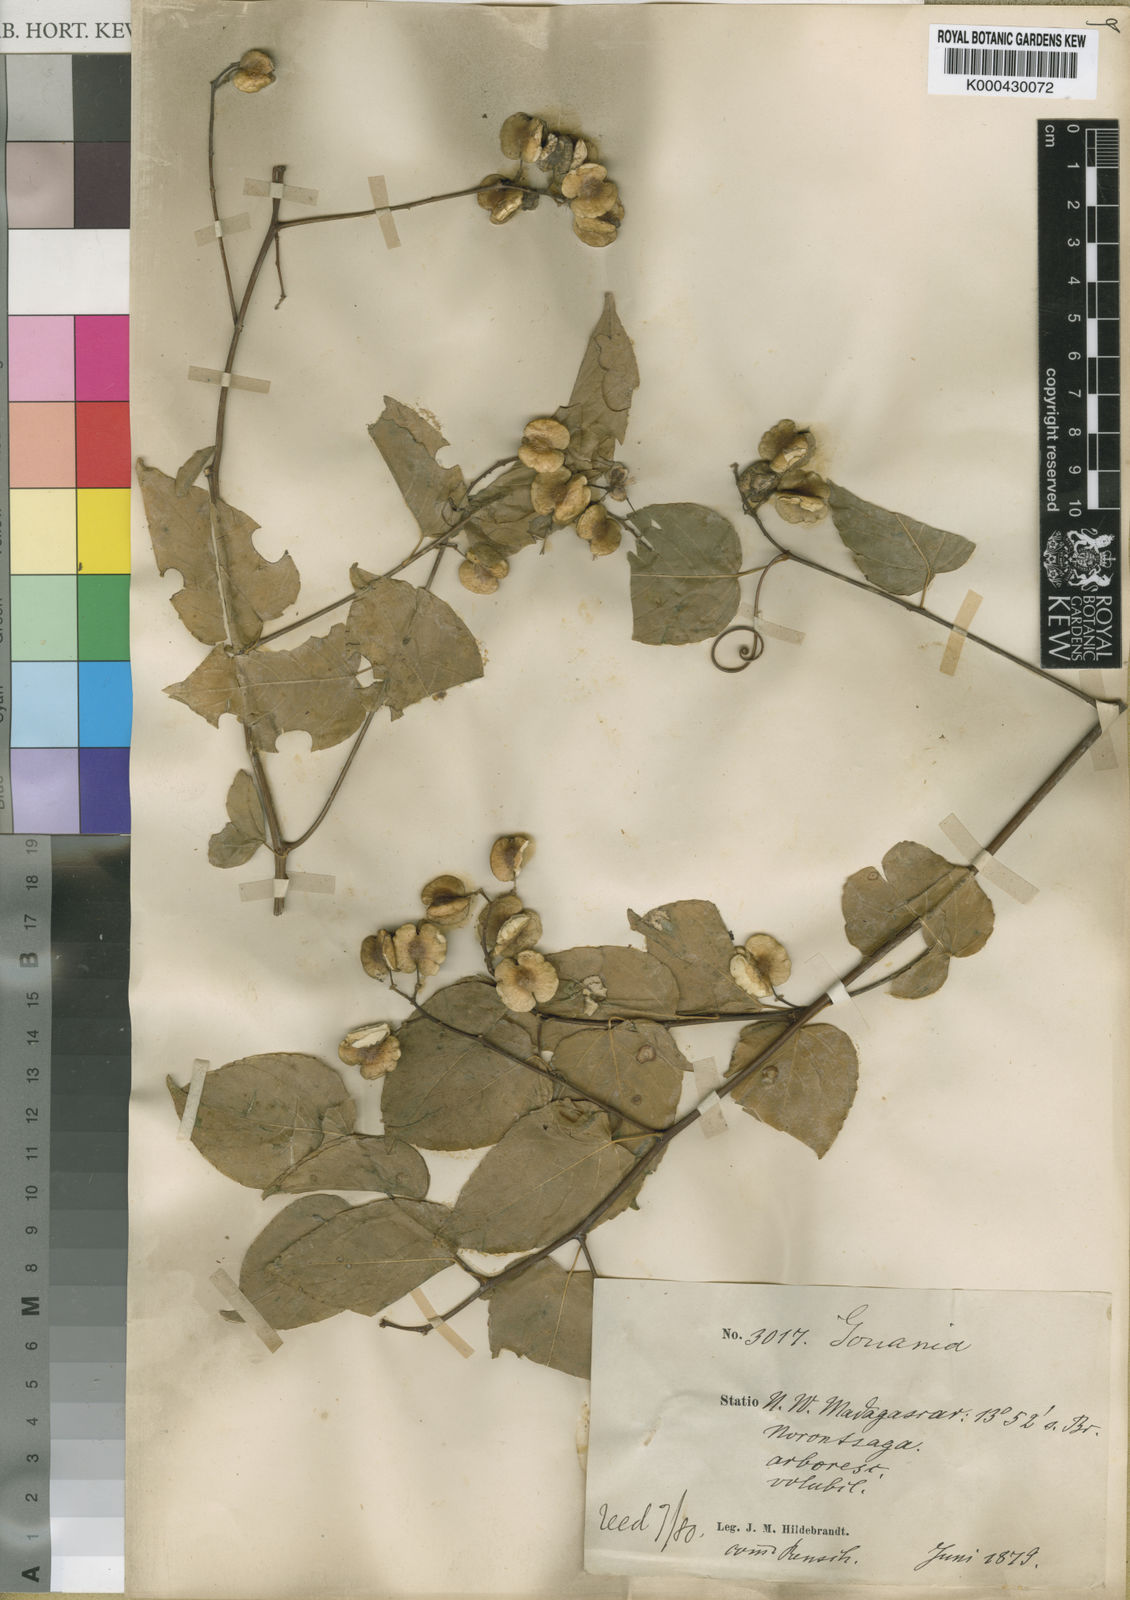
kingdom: Plantae
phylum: Tracheophyta
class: Magnoliopsida
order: Rosales
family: Rhamnaceae
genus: Gouania
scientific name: Gouania tiliifolia
